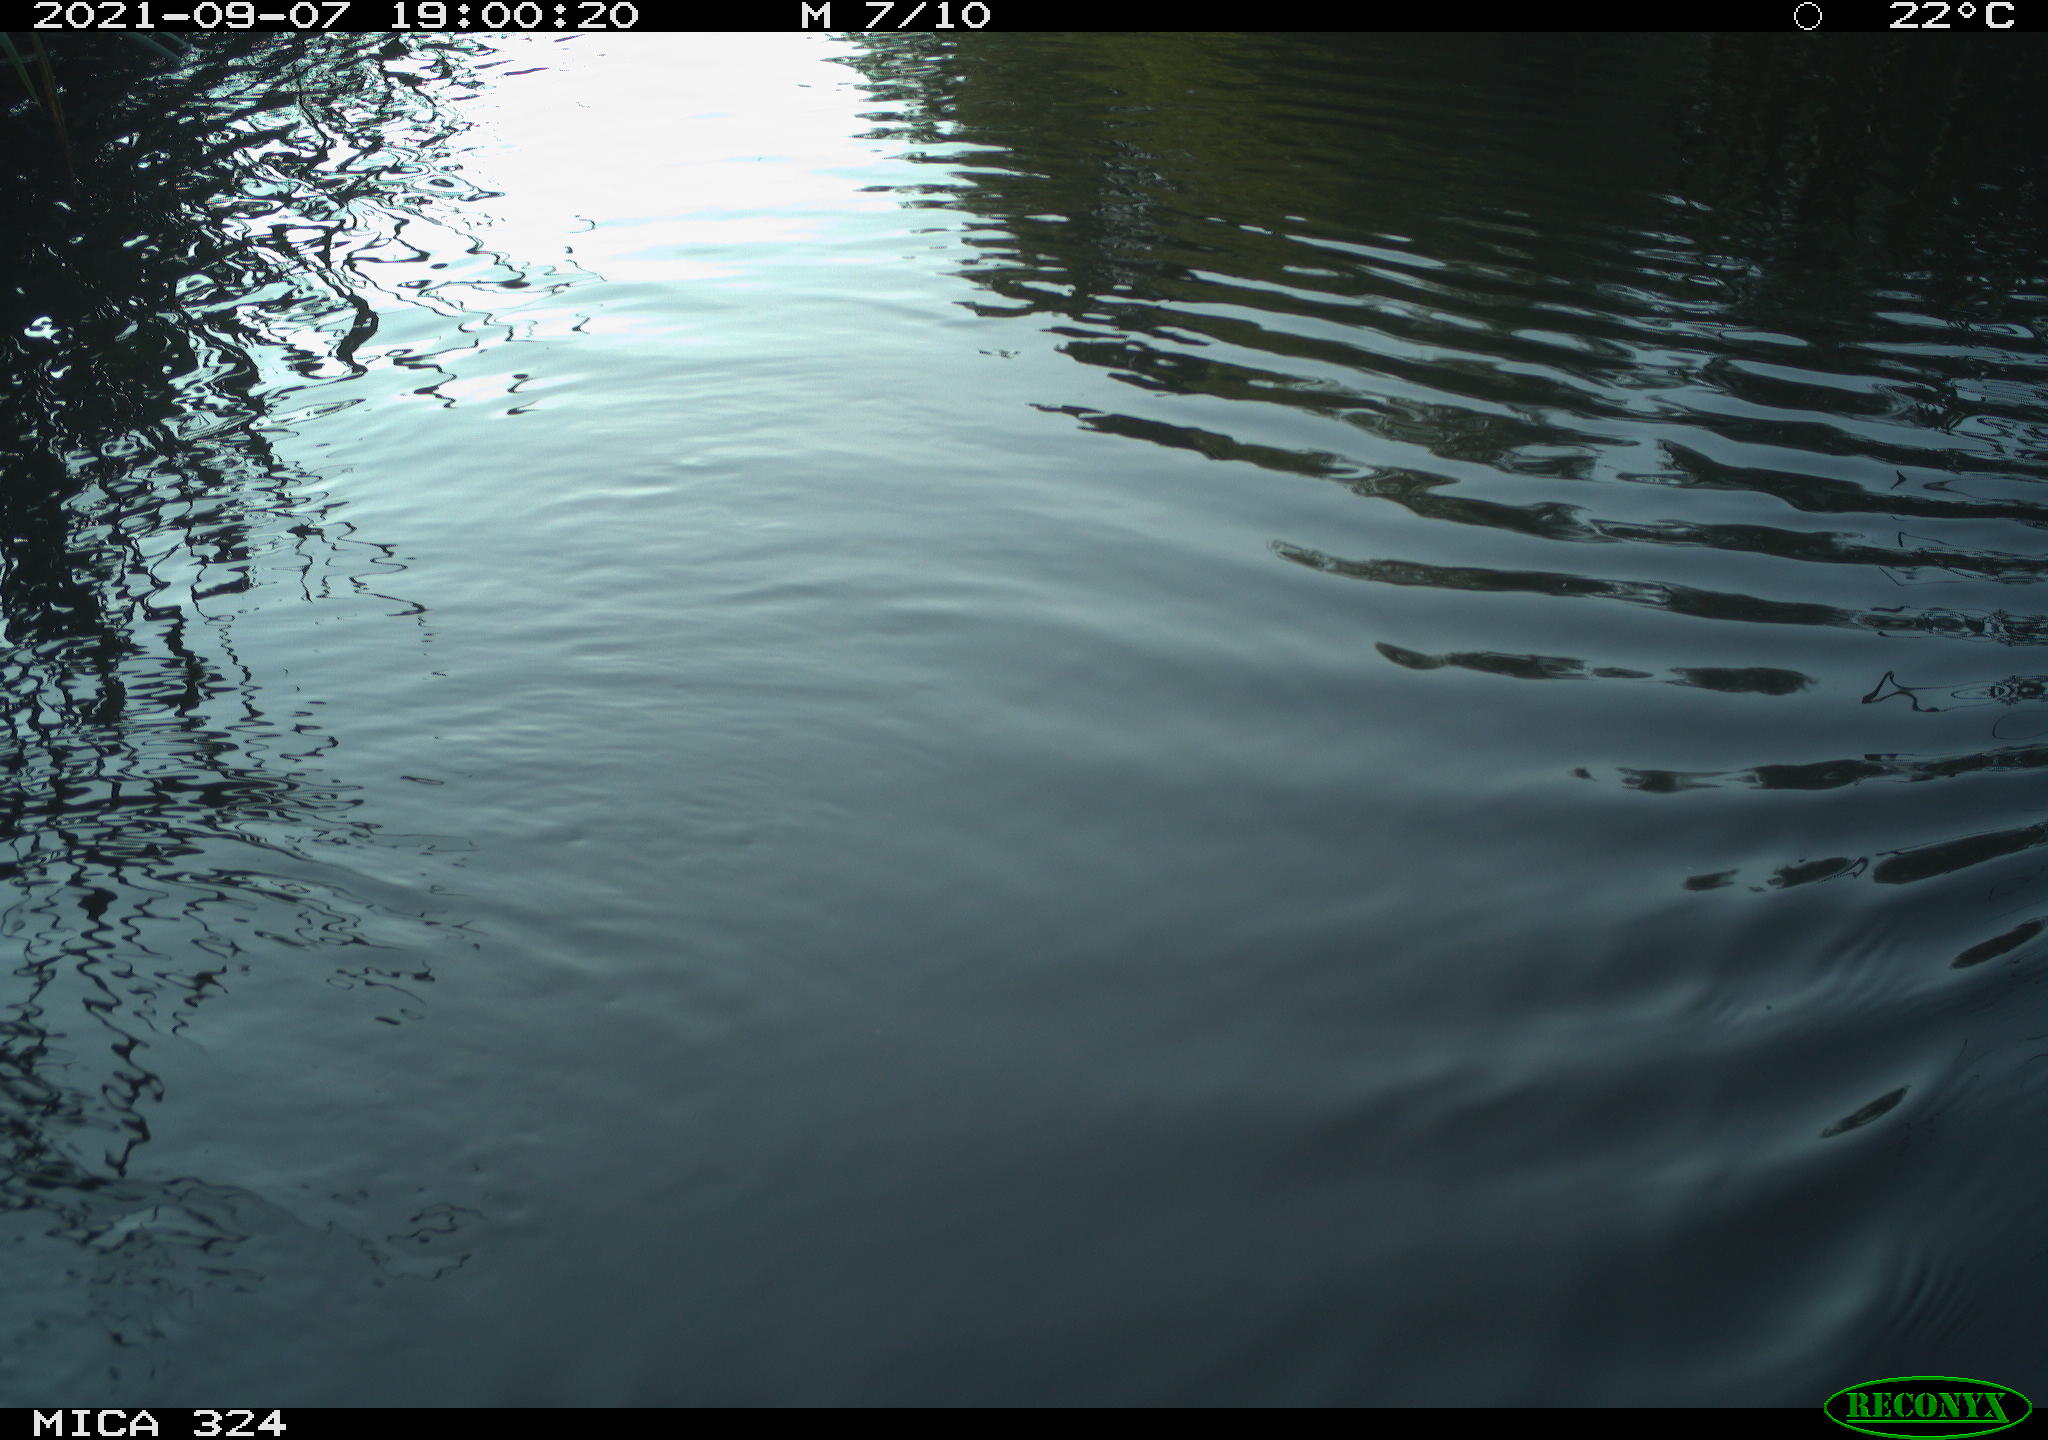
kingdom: Animalia
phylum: Chordata
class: Mammalia
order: Rodentia
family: Cricetidae
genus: Ondatra
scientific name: Ondatra zibethicus
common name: Muskrat
